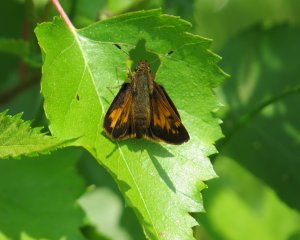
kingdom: Animalia
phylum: Arthropoda
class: Insecta
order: Lepidoptera
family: Hesperiidae
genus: Lon
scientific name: Lon hobomok
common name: Hobomok Skipper
